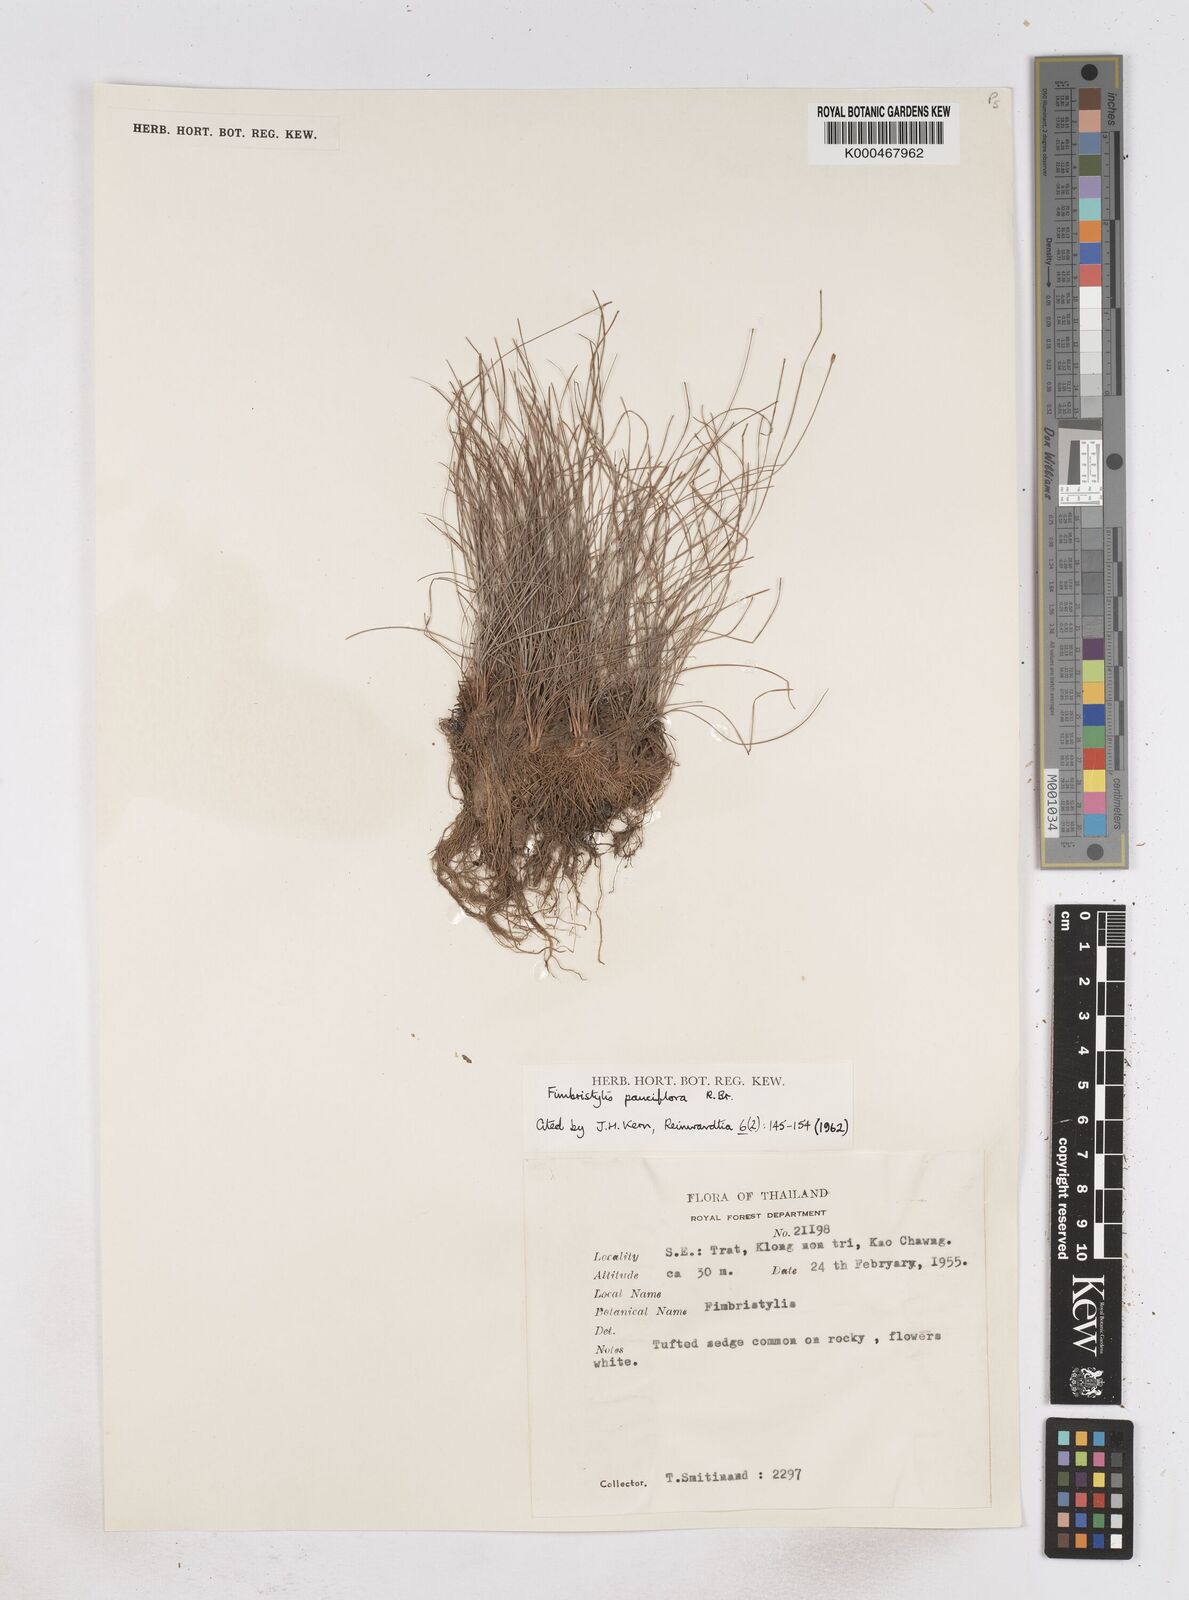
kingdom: Plantae
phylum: Tracheophyta
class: Liliopsida
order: Poales
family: Cyperaceae
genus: Fimbristylis
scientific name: Fimbristylis pauciflora
